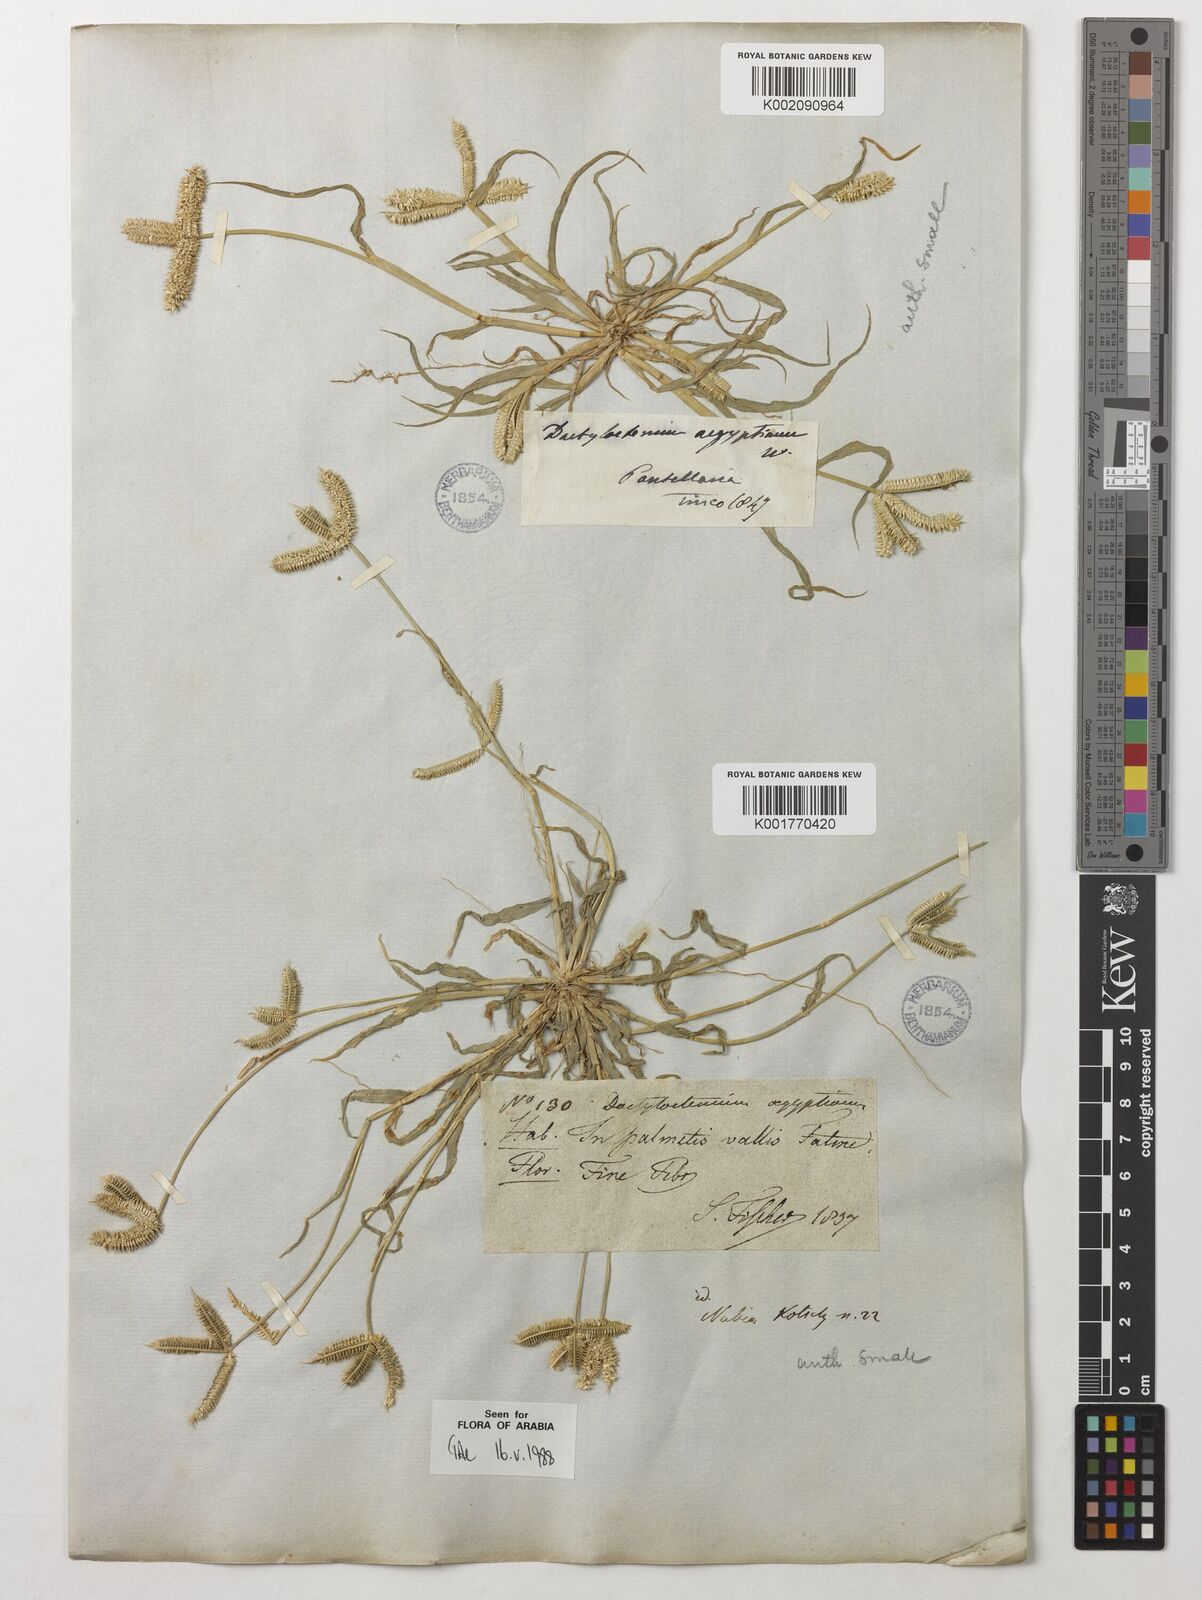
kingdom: Plantae
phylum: Tracheophyta
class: Liliopsida
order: Poales
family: Poaceae
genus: Dactyloctenium
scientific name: Dactyloctenium aegyptium
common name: Egyptian grass
